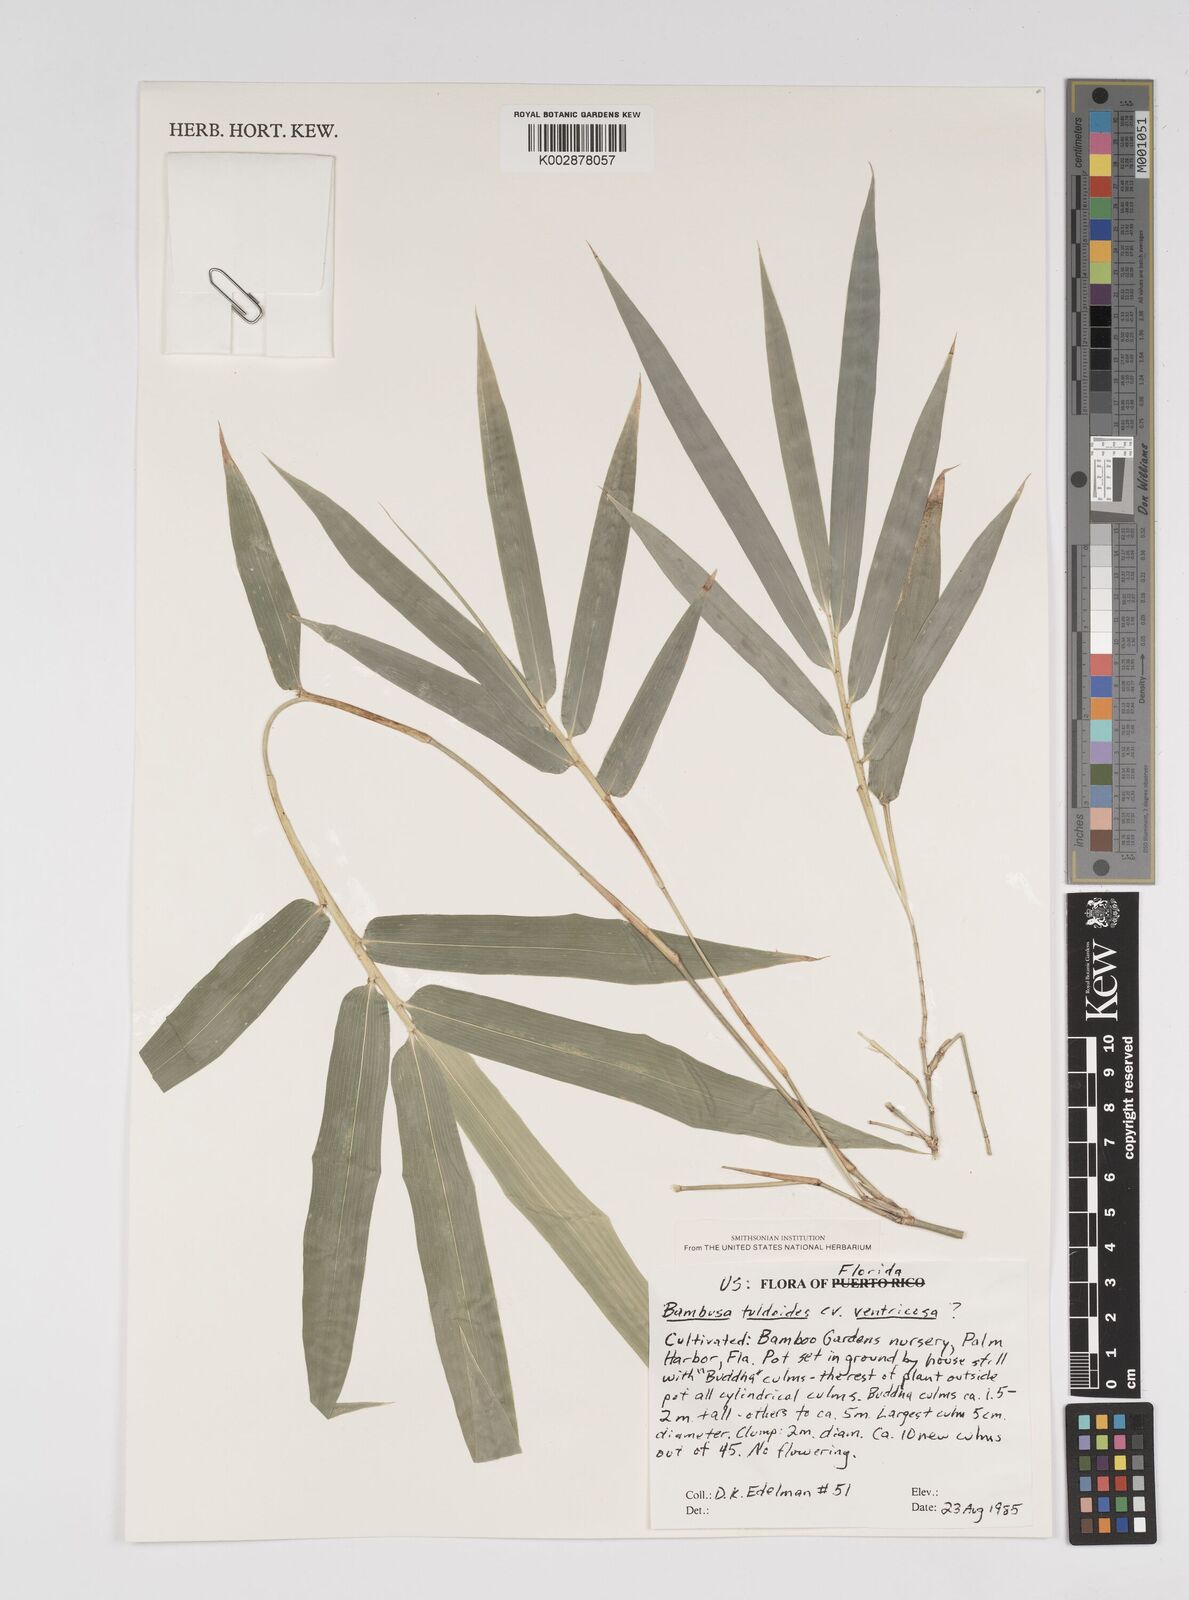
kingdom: Plantae
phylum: Tracheophyta
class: Liliopsida
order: Poales
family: Poaceae
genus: Bambusa
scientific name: Bambusa tuldoides
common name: Verdant bamboo
